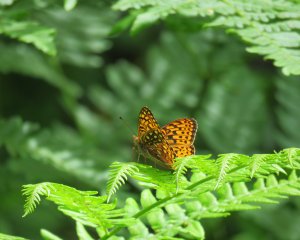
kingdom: Animalia
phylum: Arthropoda
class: Insecta
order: Lepidoptera
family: Nymphalidae
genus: Speyeria
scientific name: Speyeria atlantis
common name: Atlantis Fritillary
